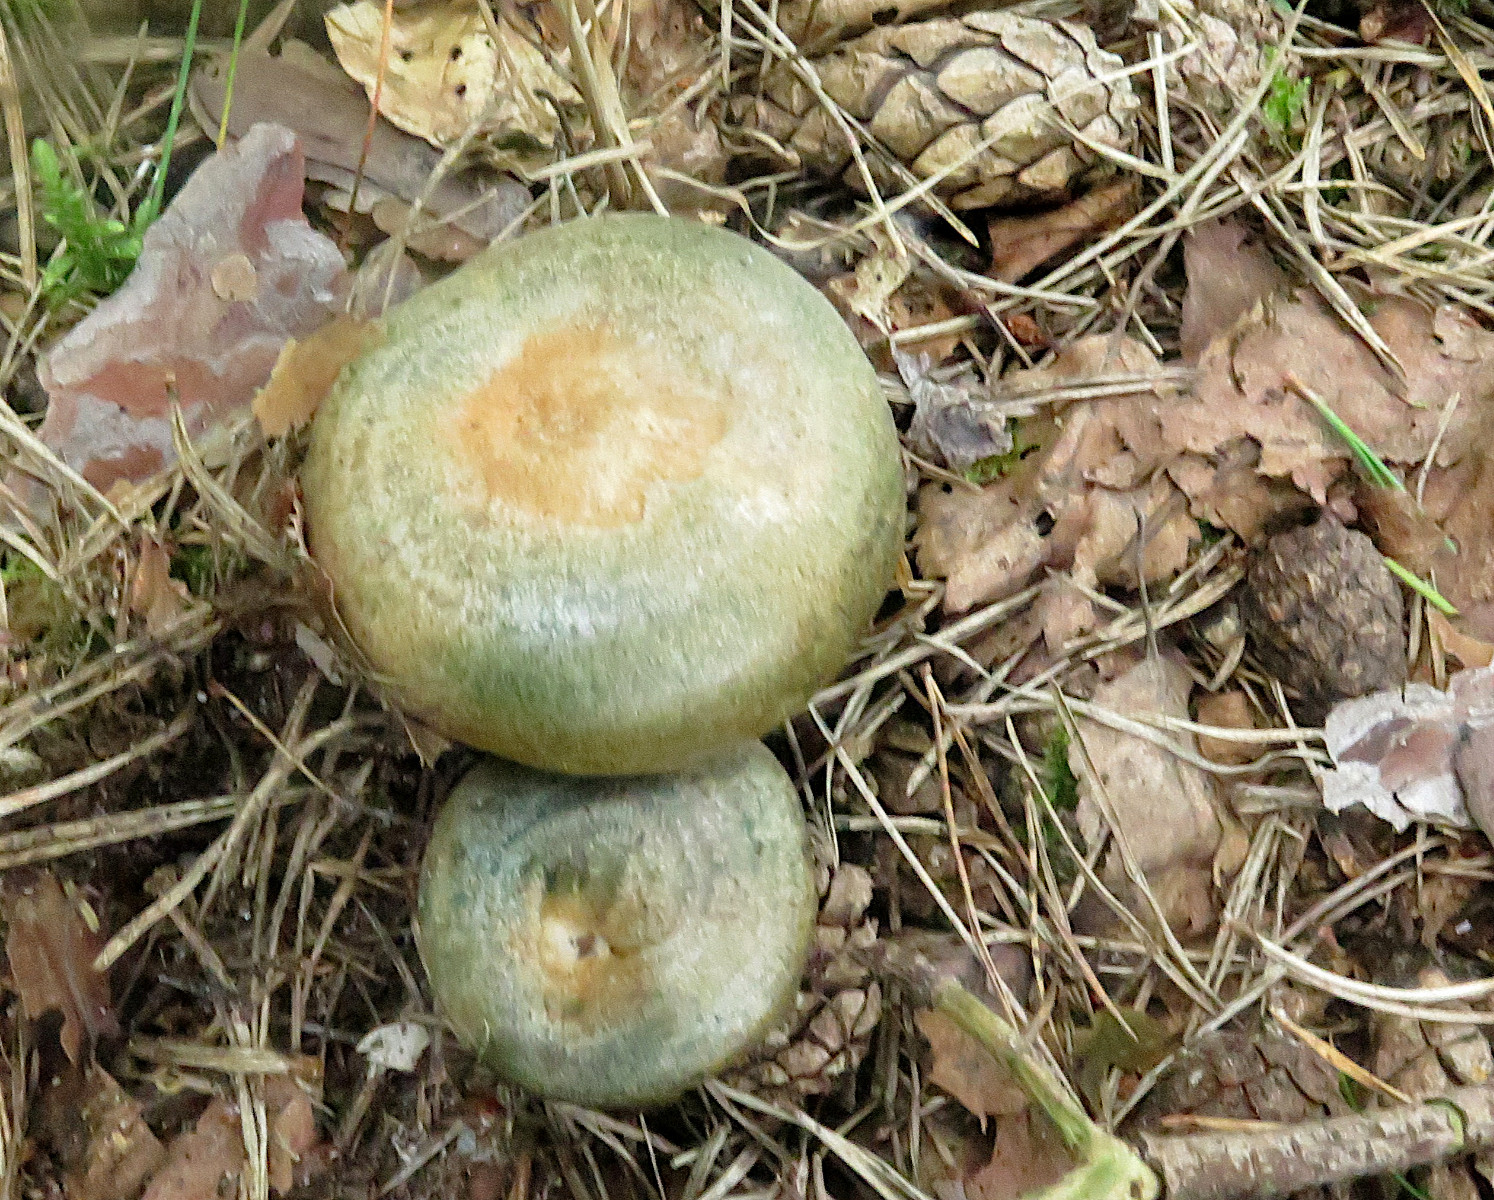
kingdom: Fungi
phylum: Basidiomycota
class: Agaricomycetes
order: Russulales
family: Russulaceae
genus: Lactarius
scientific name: Lactarius quieticolor
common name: tvefarvet mælkehat
